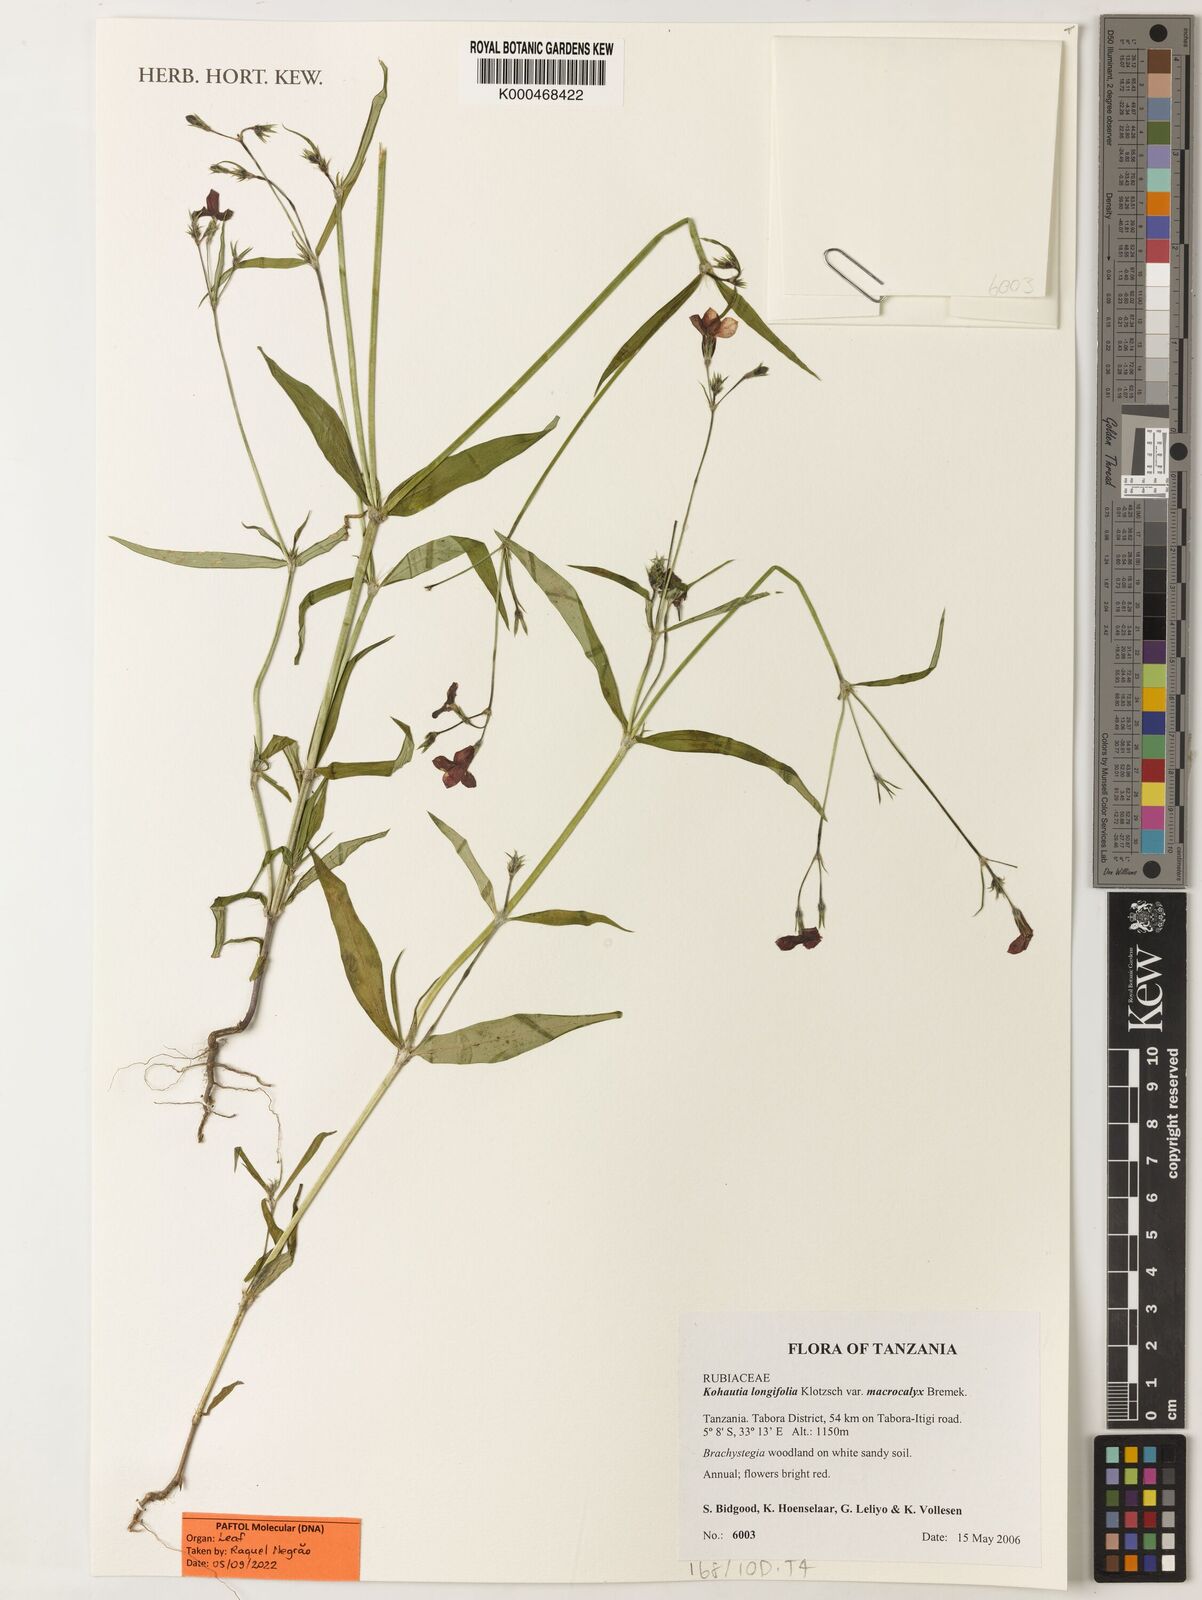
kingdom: Plantae
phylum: Tracheophyta
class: Magnoliopsida
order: Gentianales
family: Rubiaceae
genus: Cordylostigma
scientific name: Cordylostigma longifolium
